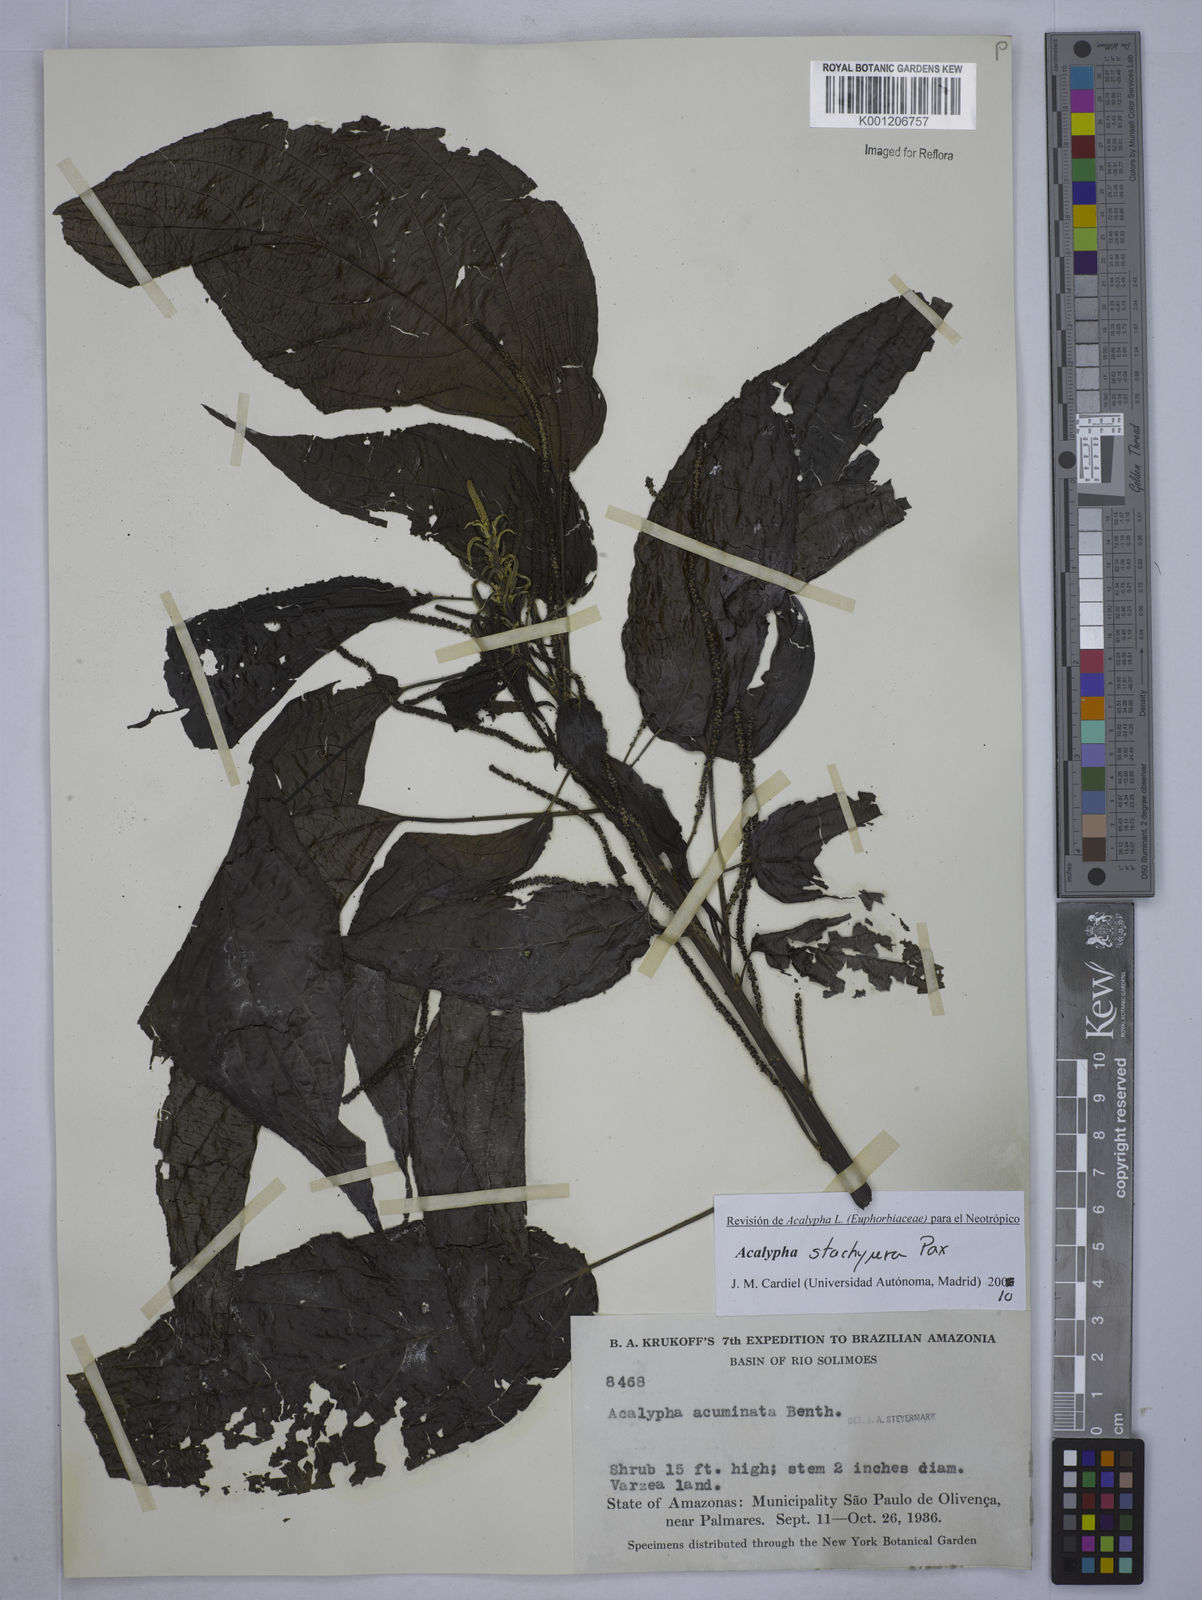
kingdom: Plantae
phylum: Tracheophyta
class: Magnoliopsida
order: Malpighiales
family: Euphorbiaceae
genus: Acalypha
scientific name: Acalypha acuminata
